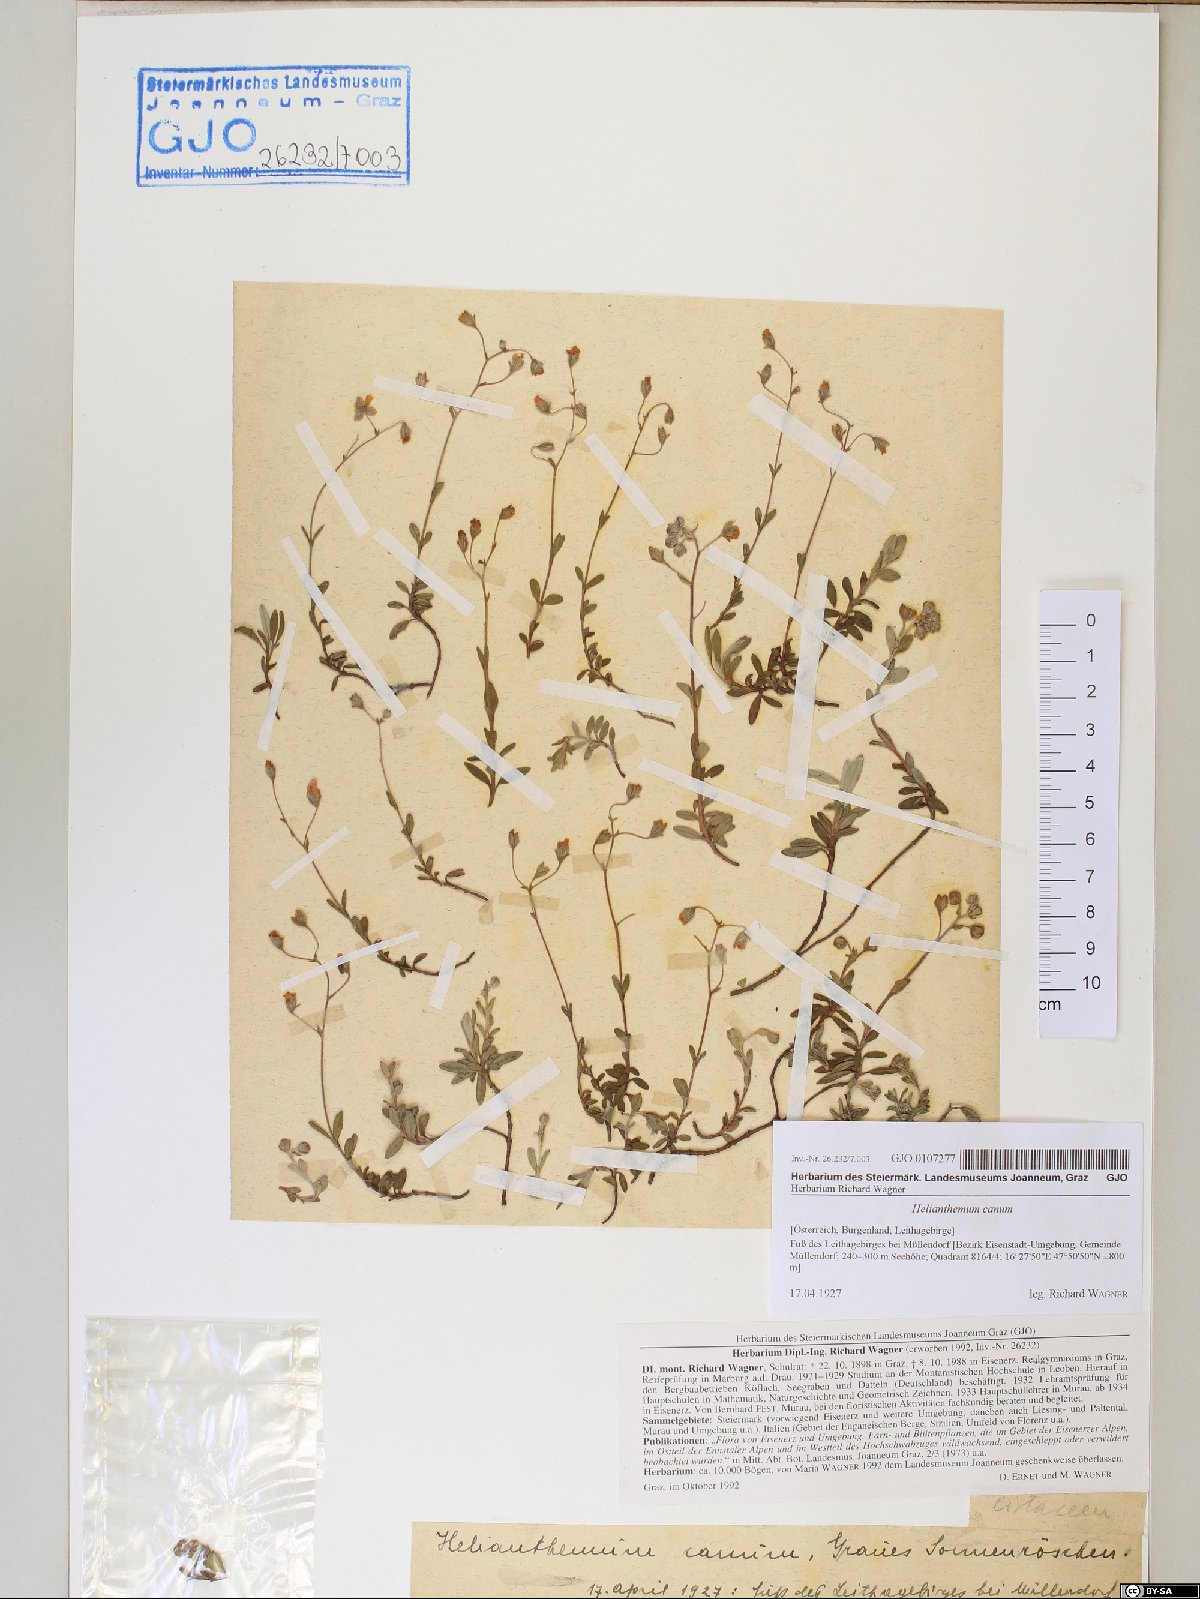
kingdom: Plantae
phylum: Tracheophyta
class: Magnoliopsida
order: Malvales
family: Cistaceae
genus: Helianthemum
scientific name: Helianthemum canum
